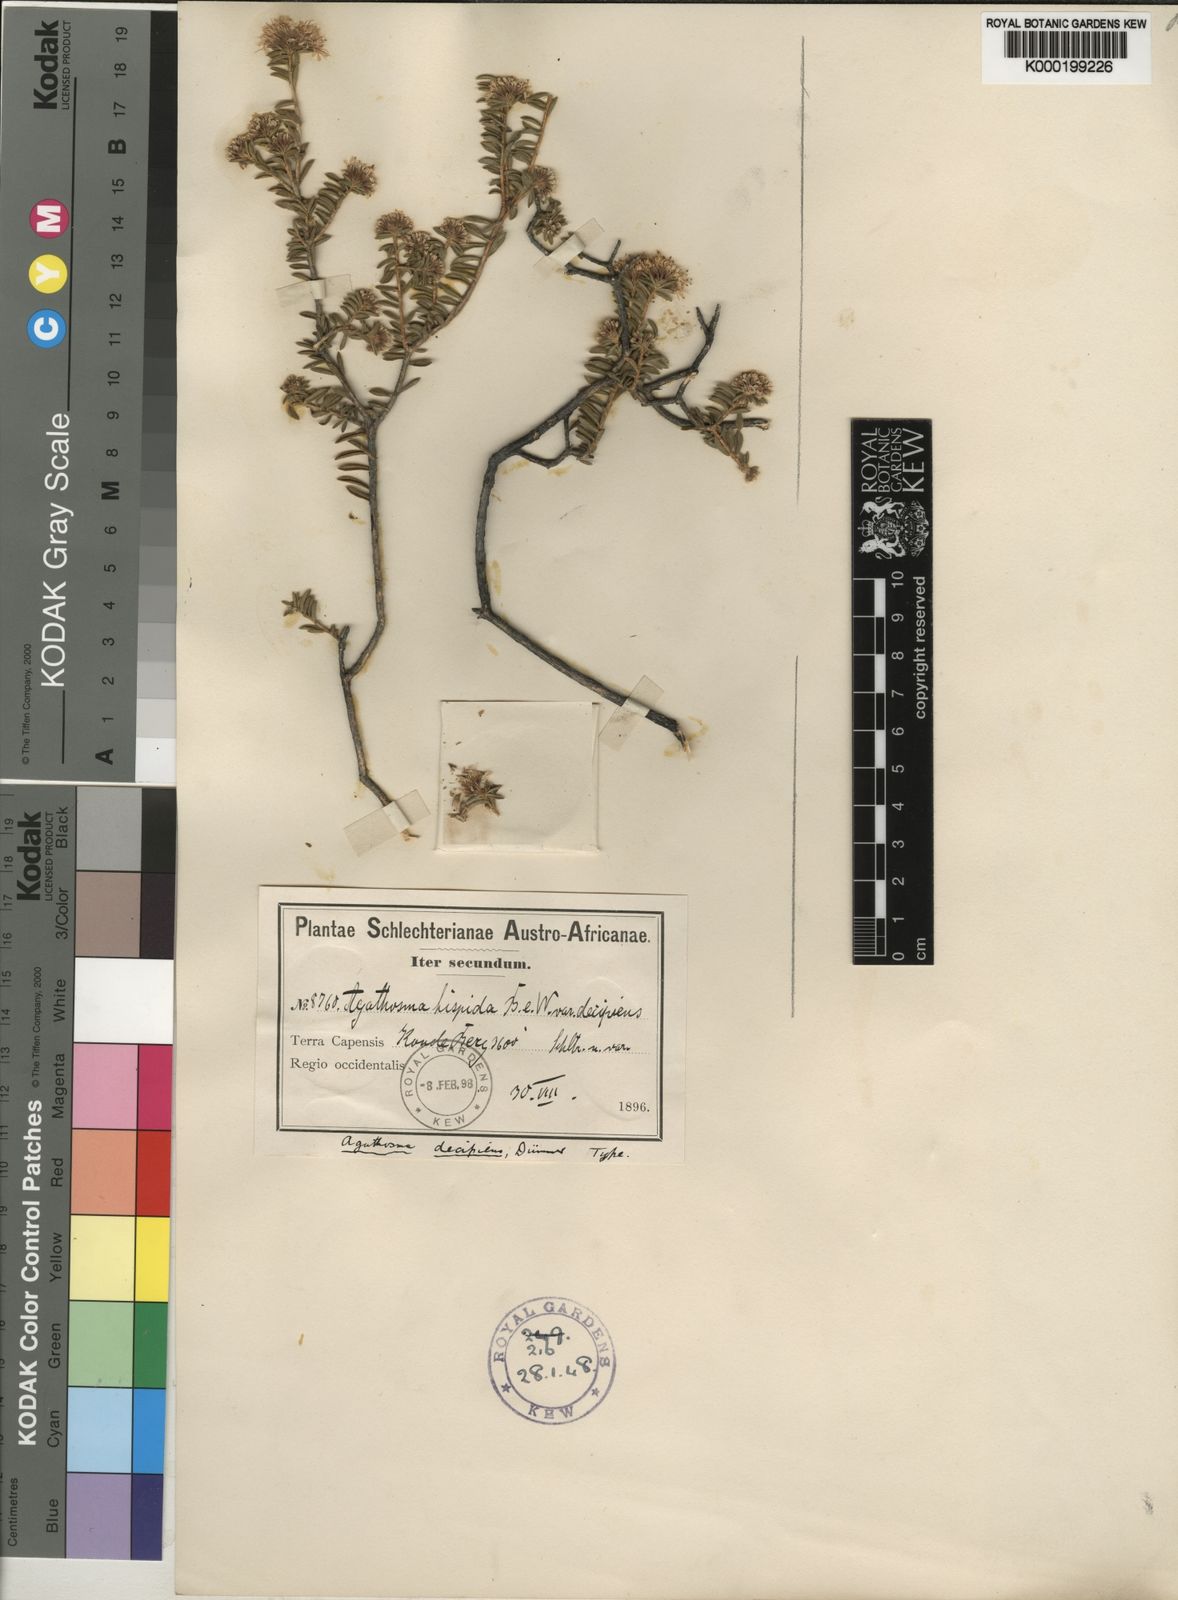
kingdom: Plantae
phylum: Tracheophyta
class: Magnoliopsida
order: Sapindales
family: Rutaceae
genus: Agathosma
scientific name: Agathosma pubigera
